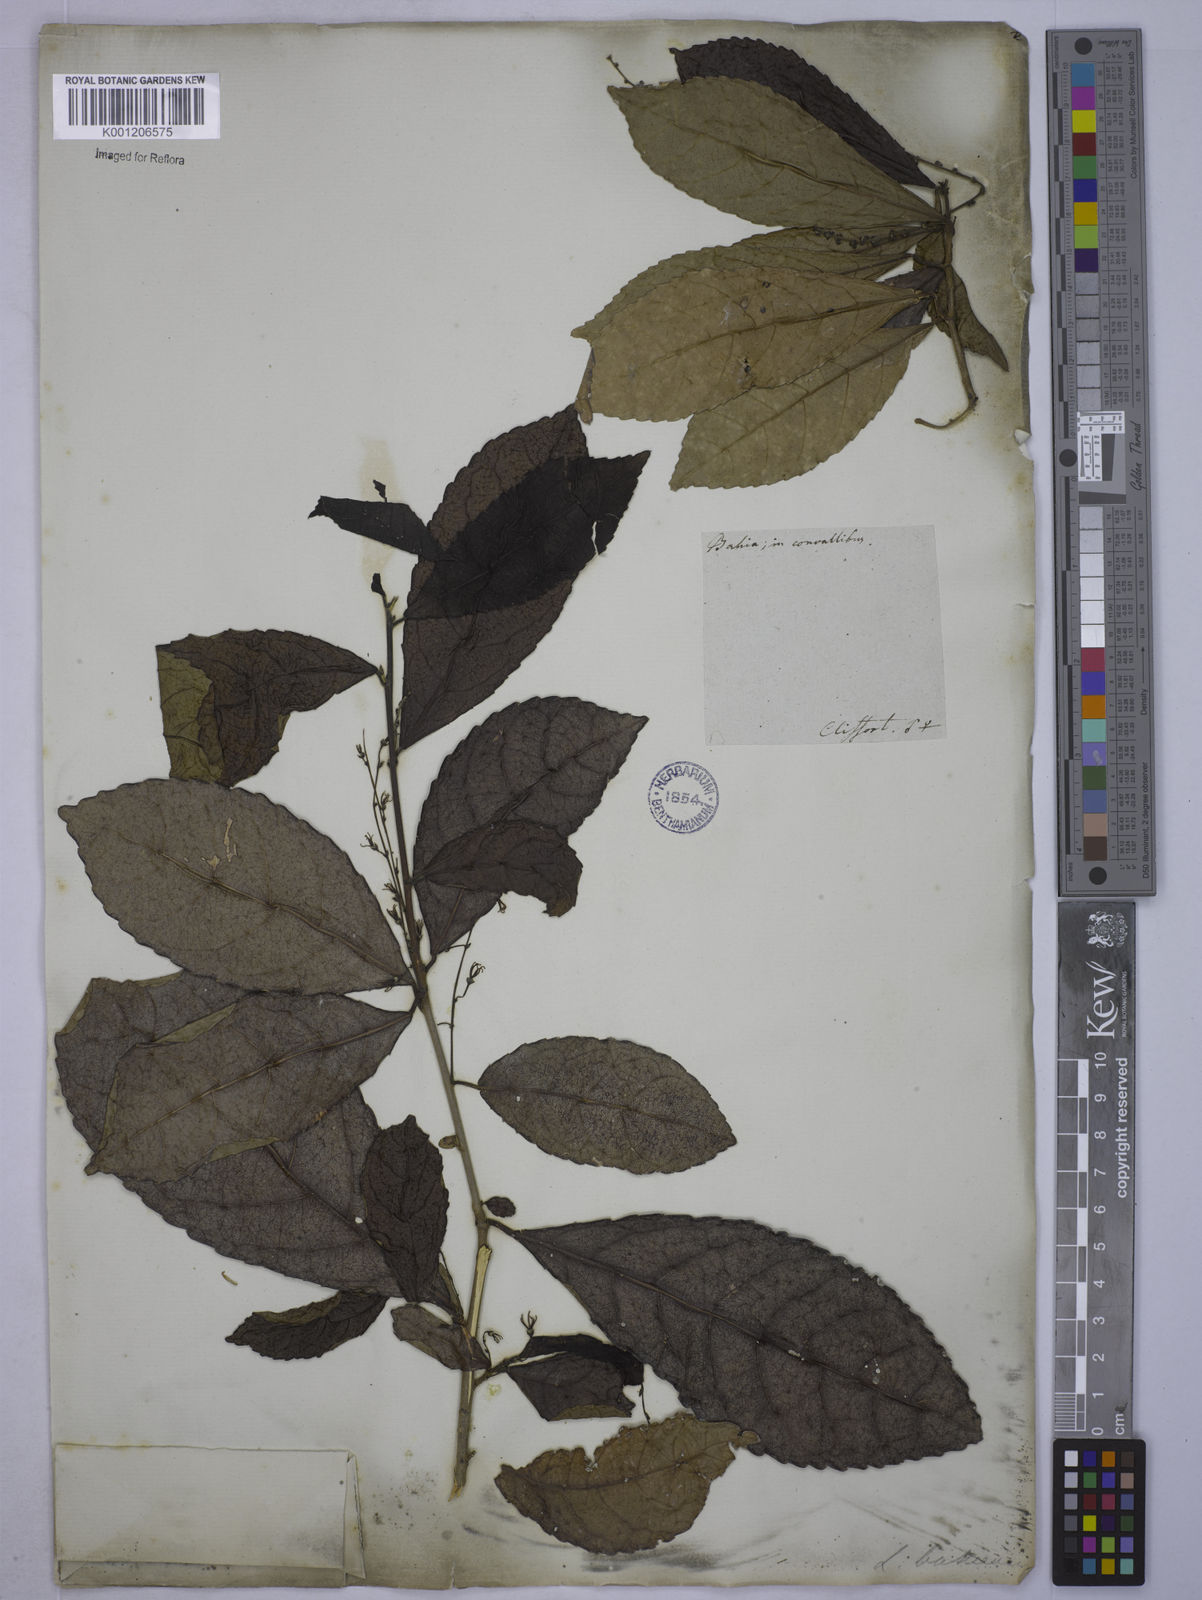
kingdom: Plantae
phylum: Tracheophyta
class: Magnoliopsida
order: Malpighiales
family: Euphorbiaceae
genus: Cleidion
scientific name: Cleidion tricoccum
